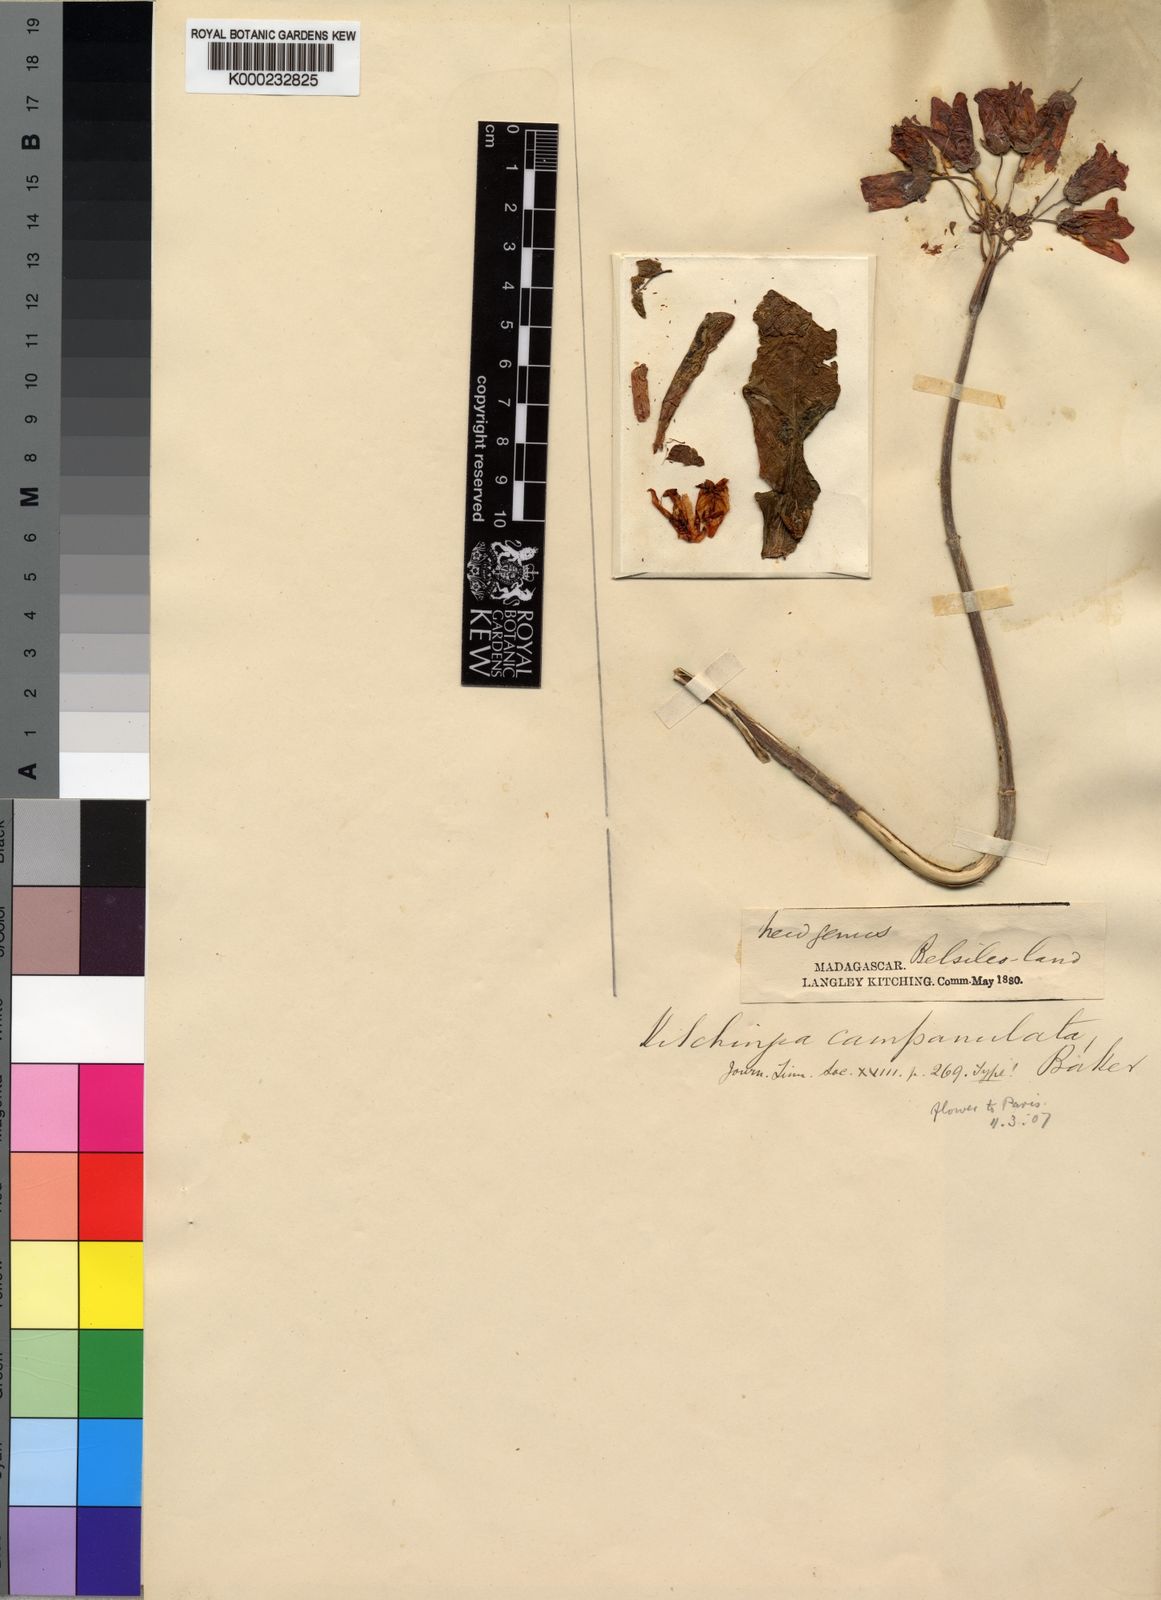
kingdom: Plantae
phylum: Tracheophyta
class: Magnoliopsida
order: Saxifragales
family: Crassulaceae
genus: Kalanchoe
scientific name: Kalanchoe campanulata
